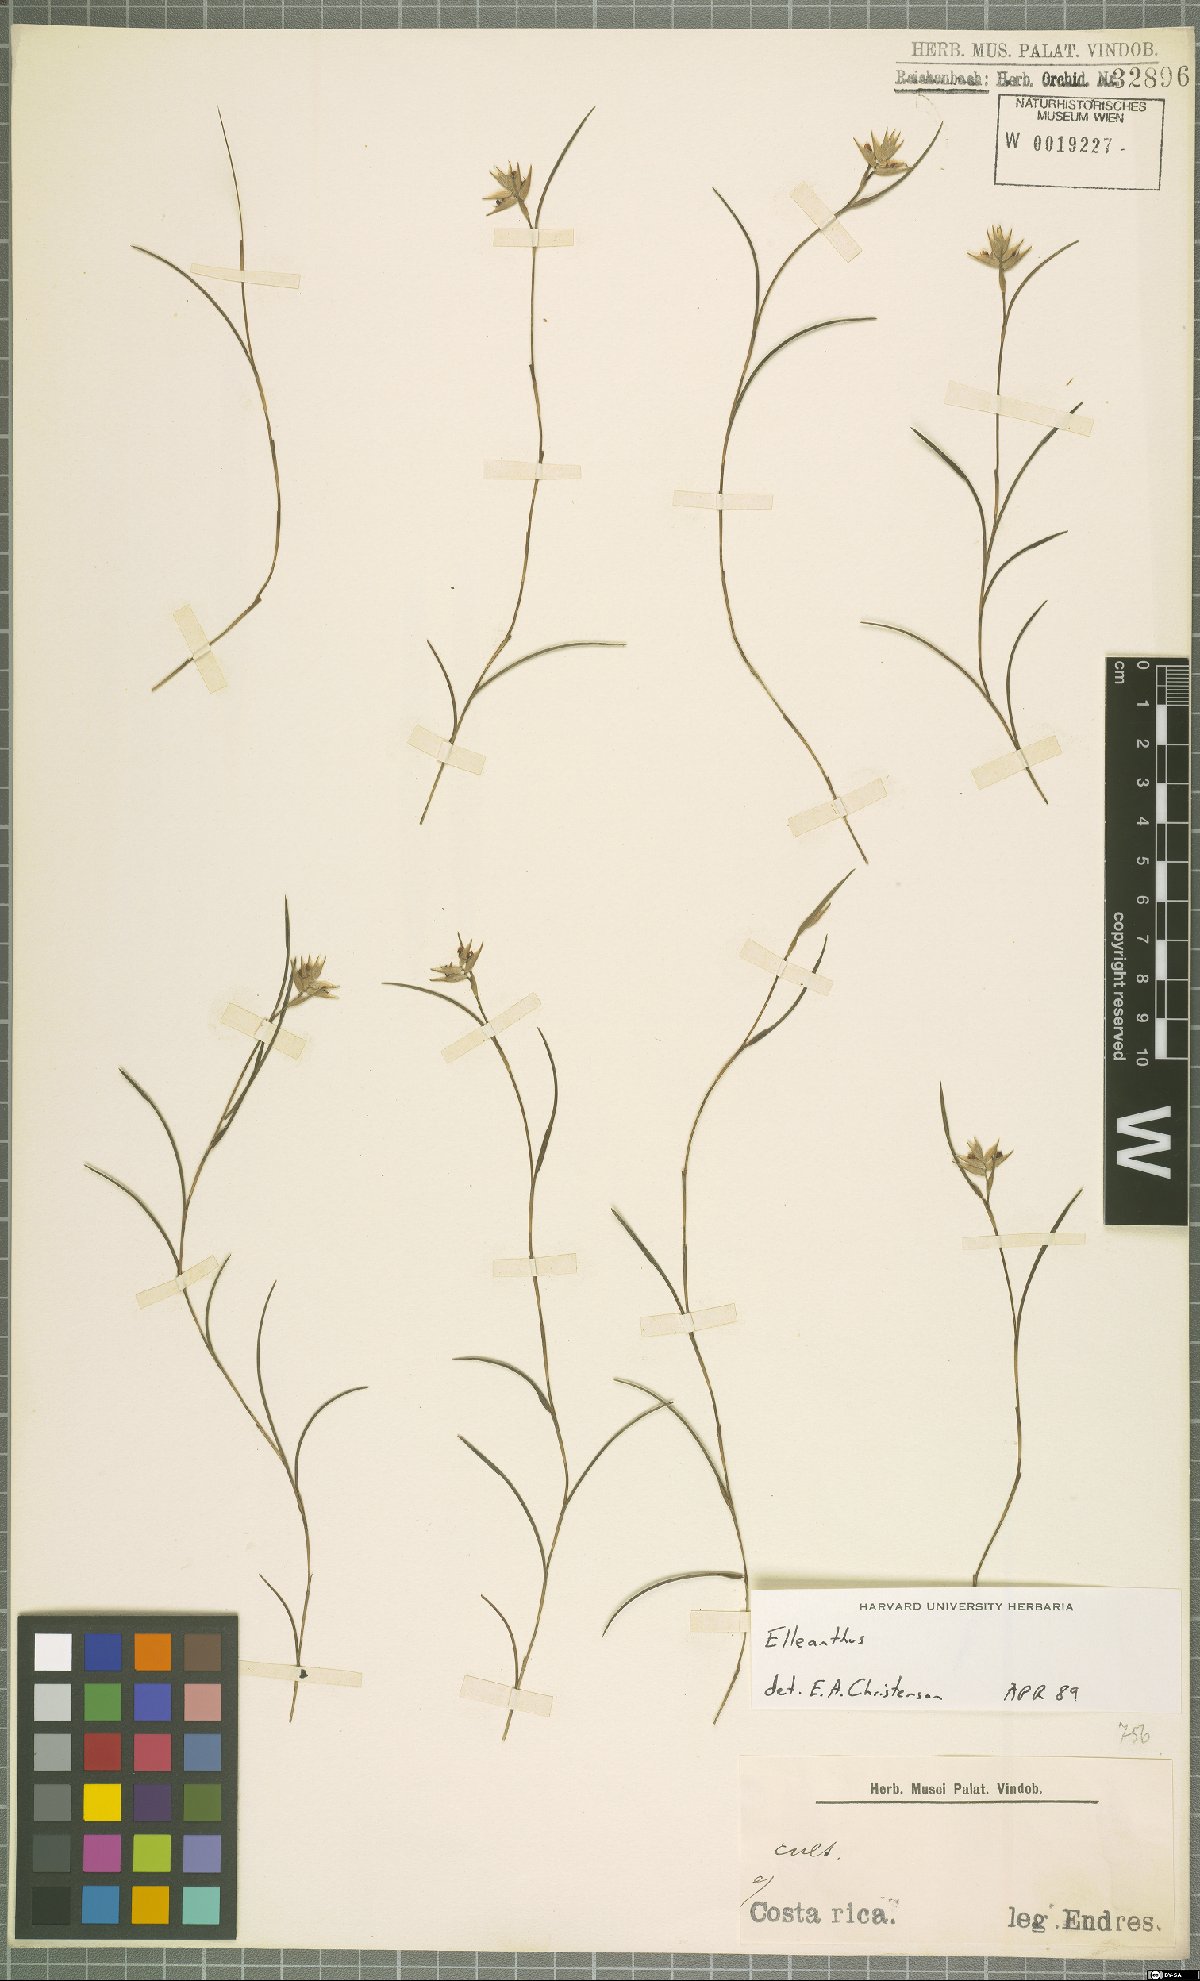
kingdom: Plantae
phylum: Tracheophyta
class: Liliopsida
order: Asparagales
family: Orchidaceae
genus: Elleanthus
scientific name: Elleanthus
